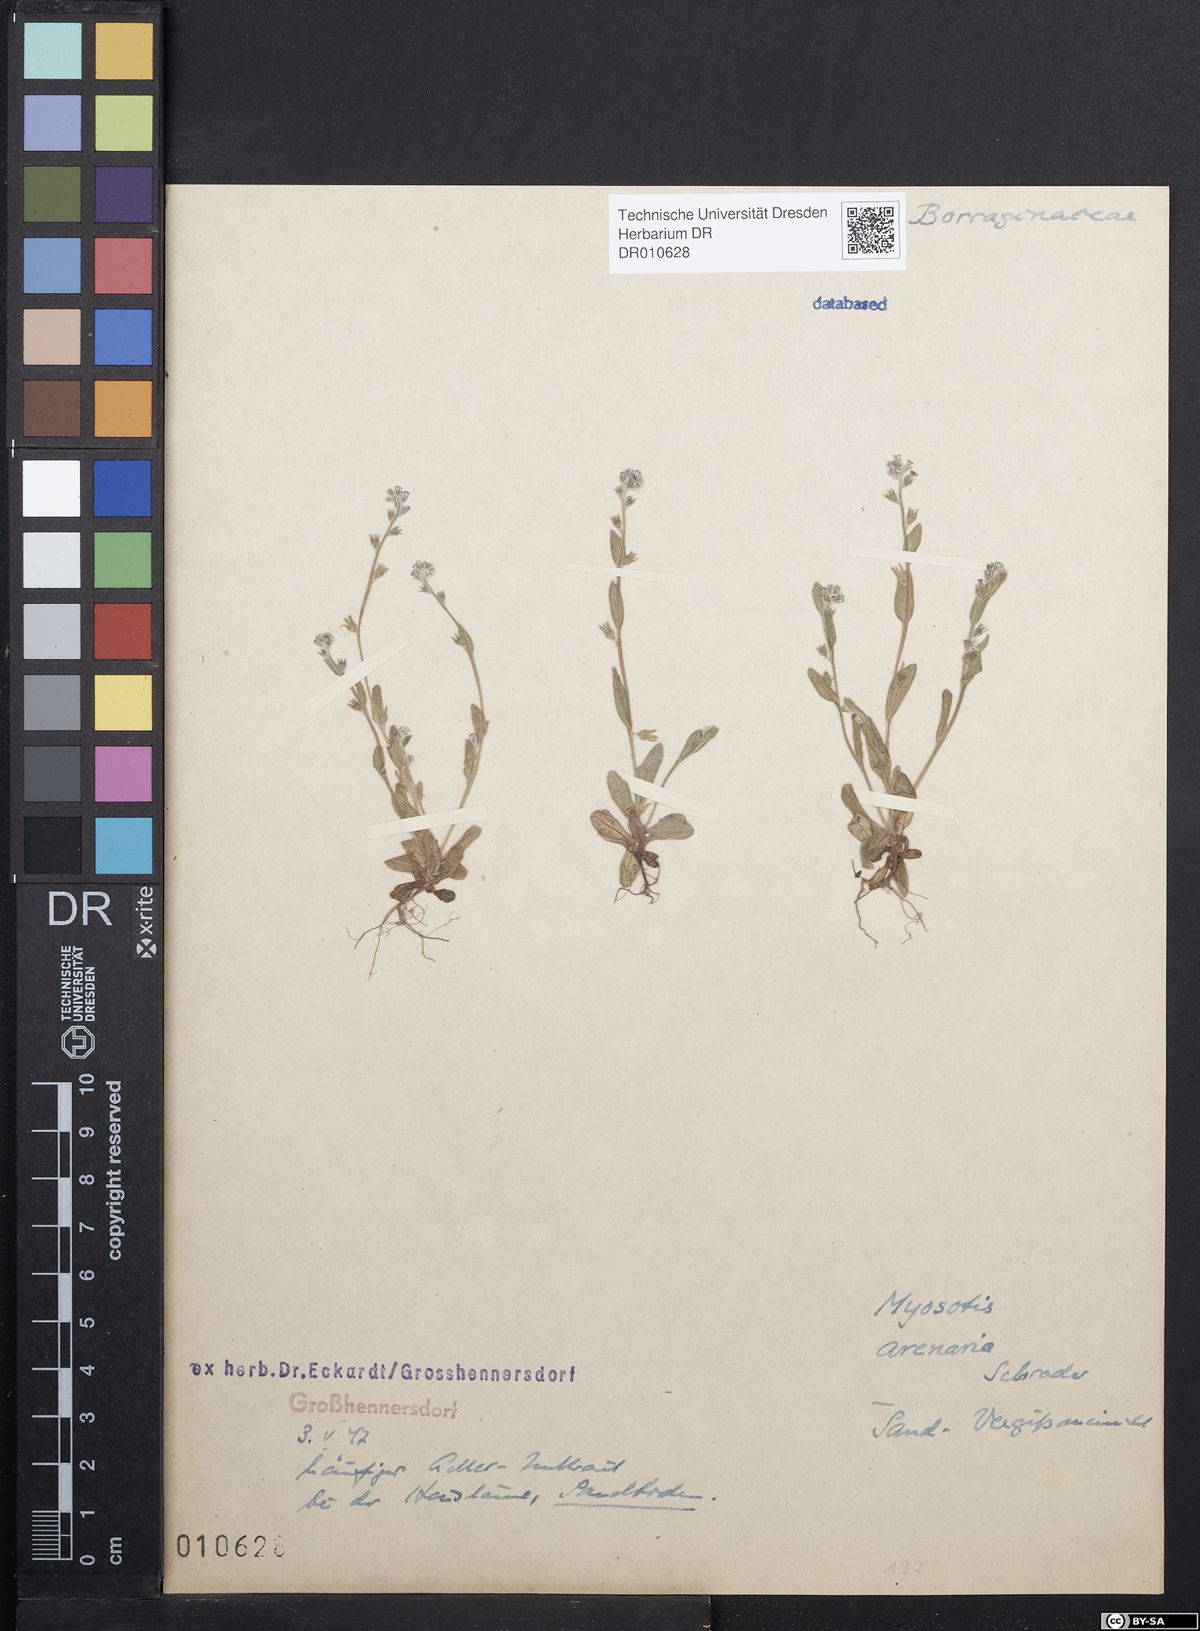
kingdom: Plantae
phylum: Tracheophyta
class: Magnoliopsida
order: Boraginales
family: Boraginaceae
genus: Myosotis
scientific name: Myosotis stricta
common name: Strict forget-me-not
